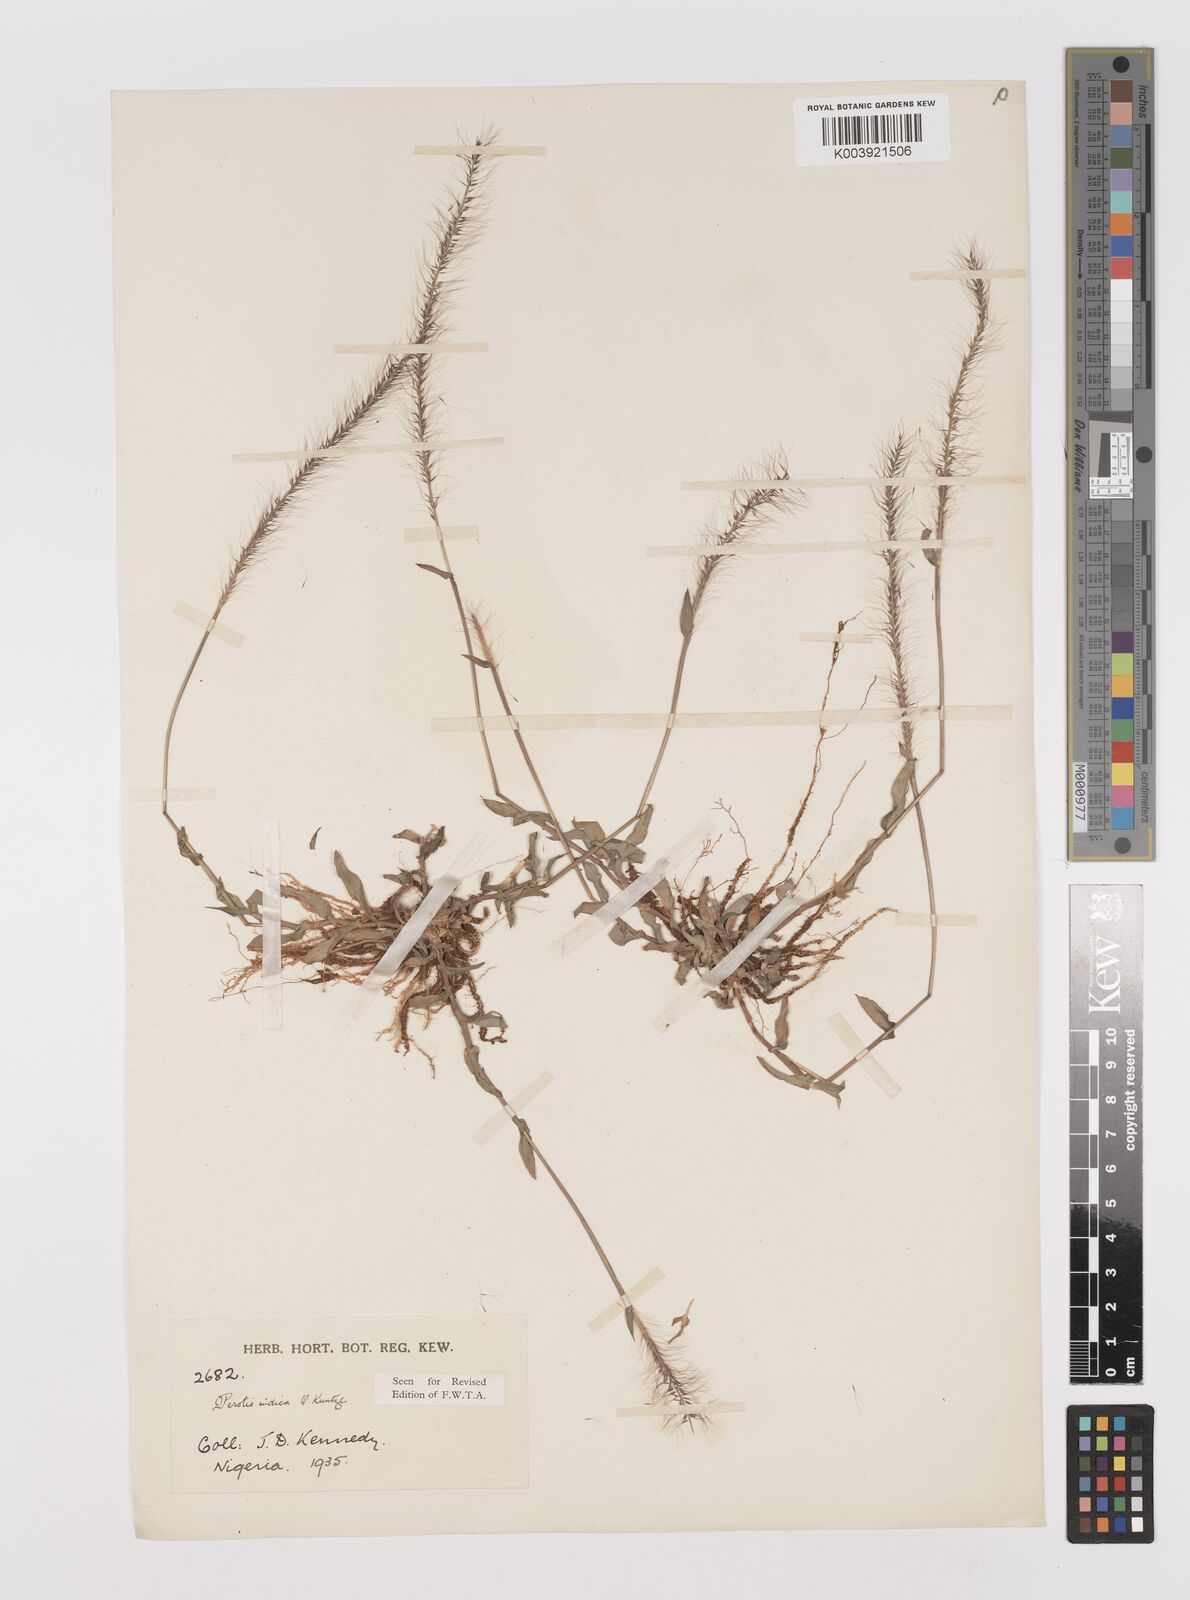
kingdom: Plantae
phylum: Tracheophyta
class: Liliopsida
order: Poales
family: Poaceae
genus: Perotis
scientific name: Perotis indica
